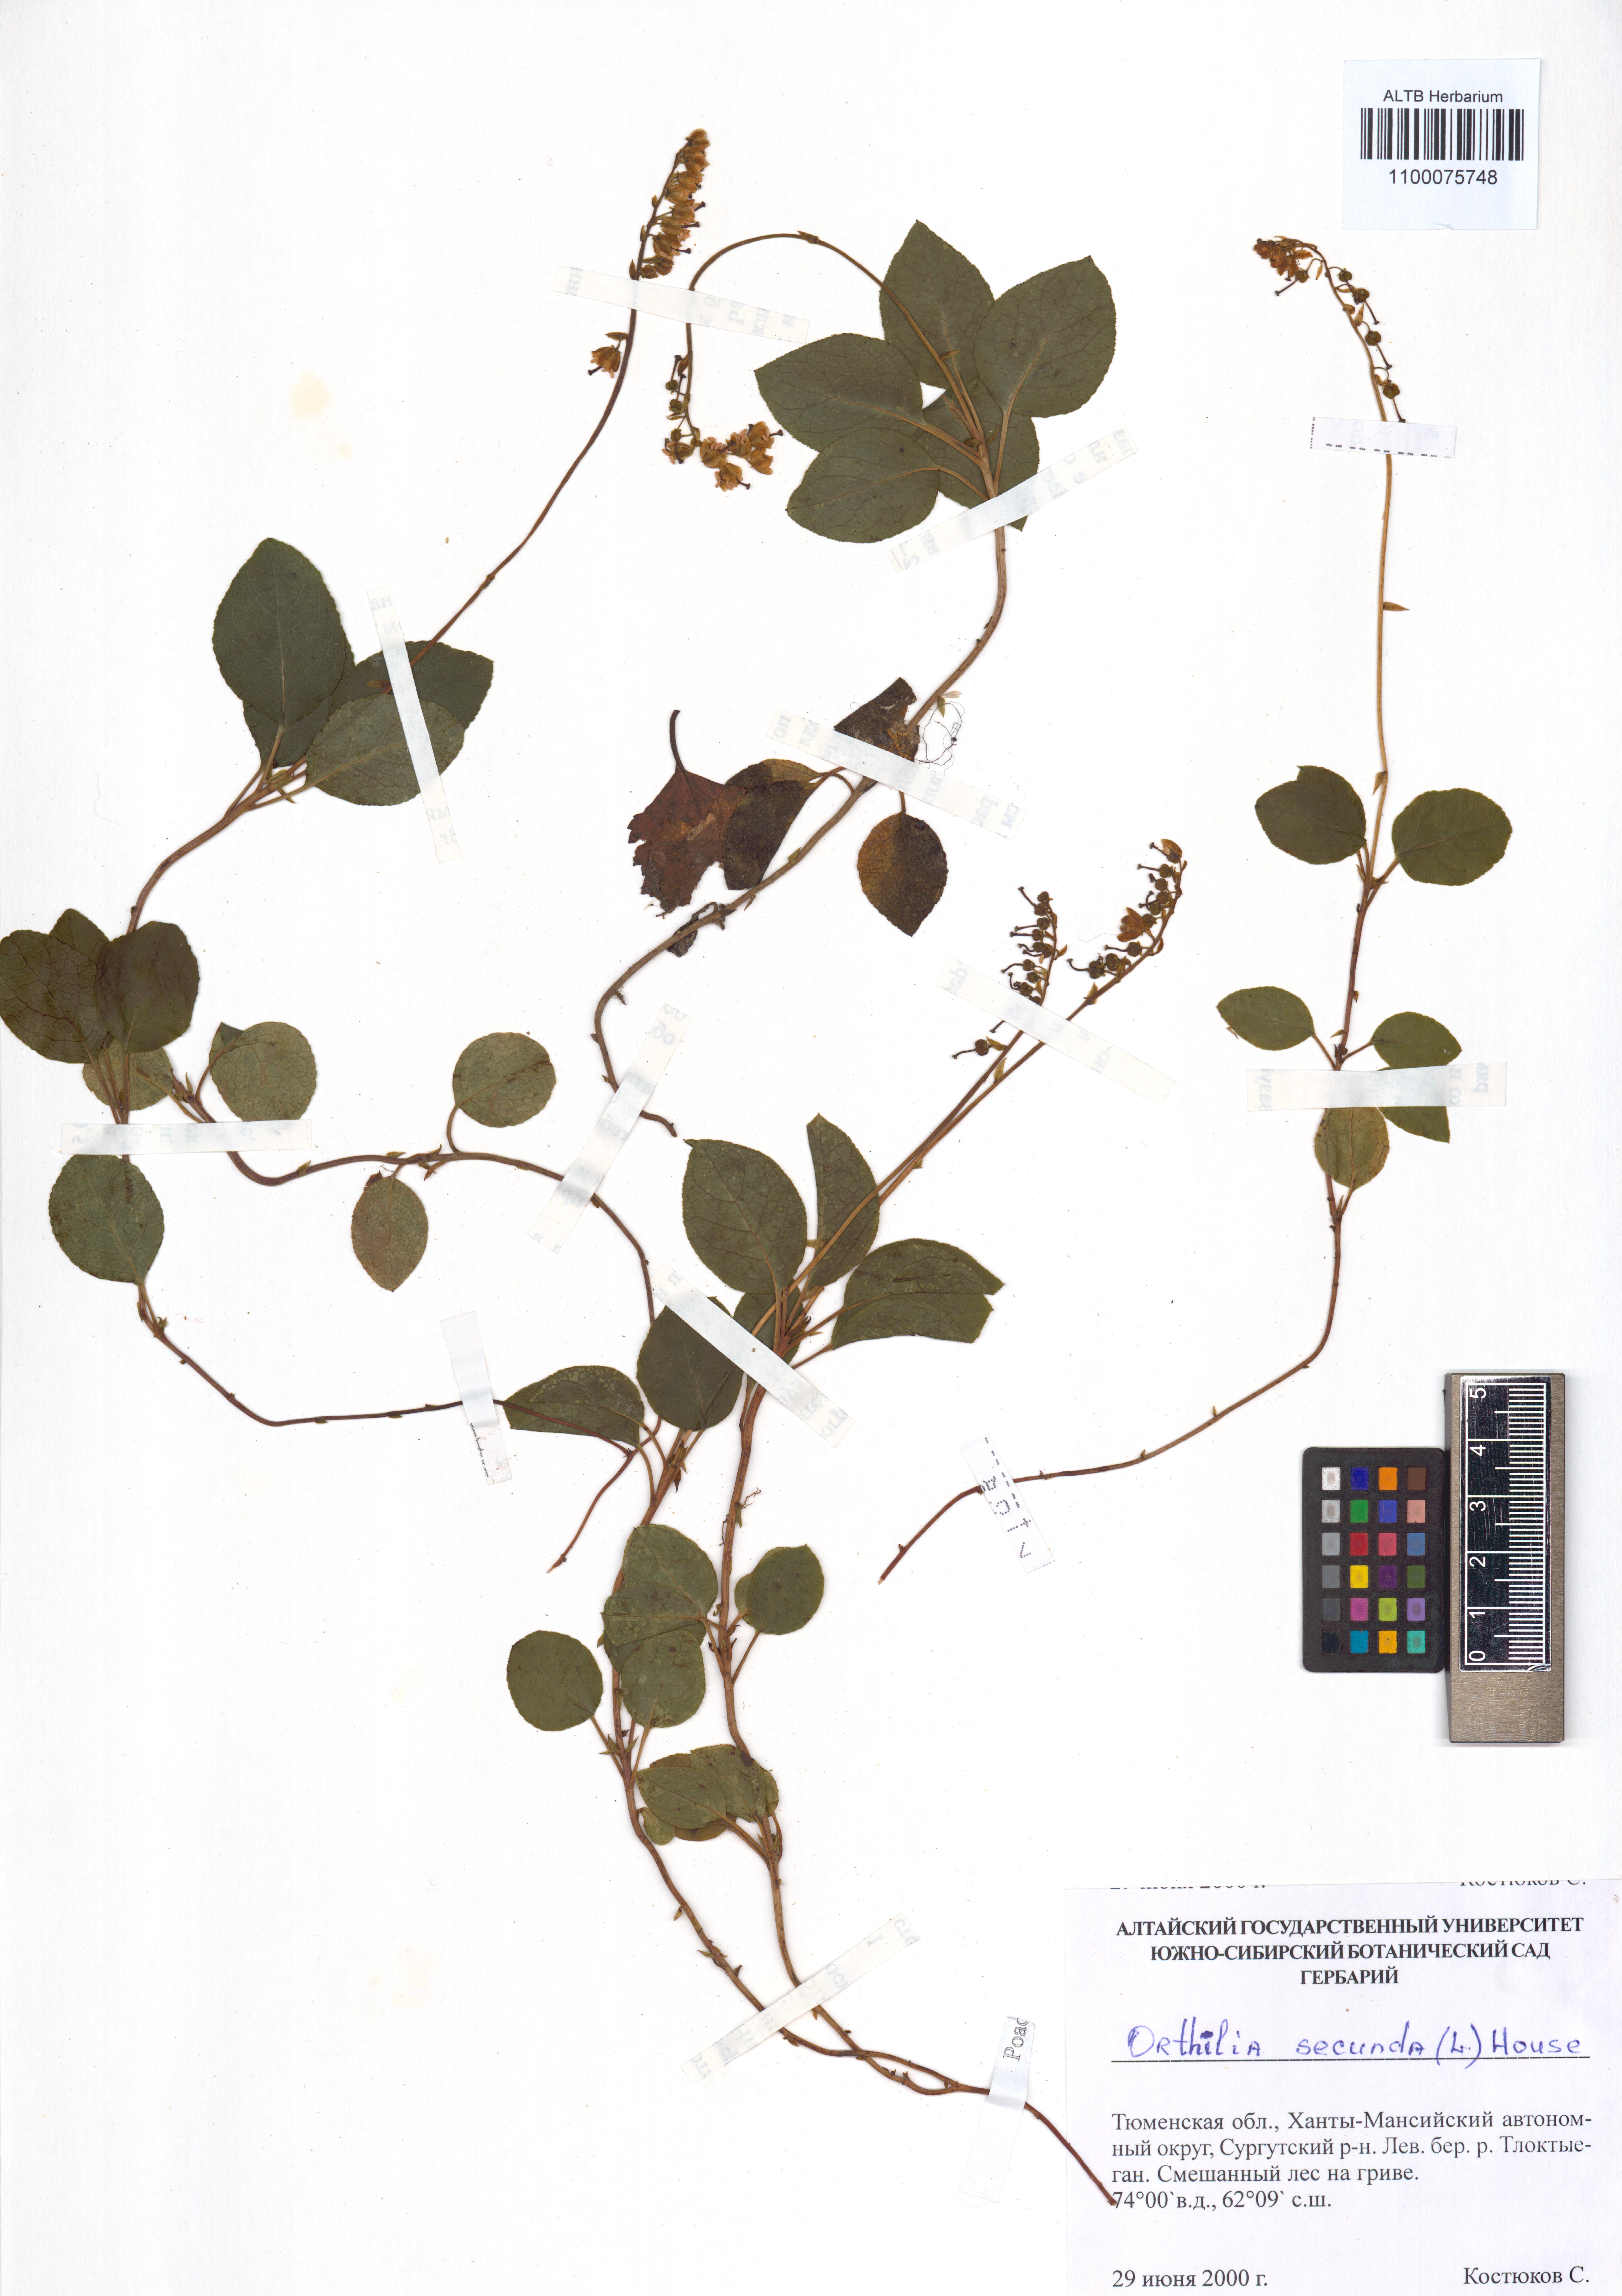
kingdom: Plantae
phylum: Tracheophyta
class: Magnoliopsida
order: Ericales
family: Ericaceae
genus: Orthilia
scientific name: Orthilia secunda
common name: One-sided orthilia
